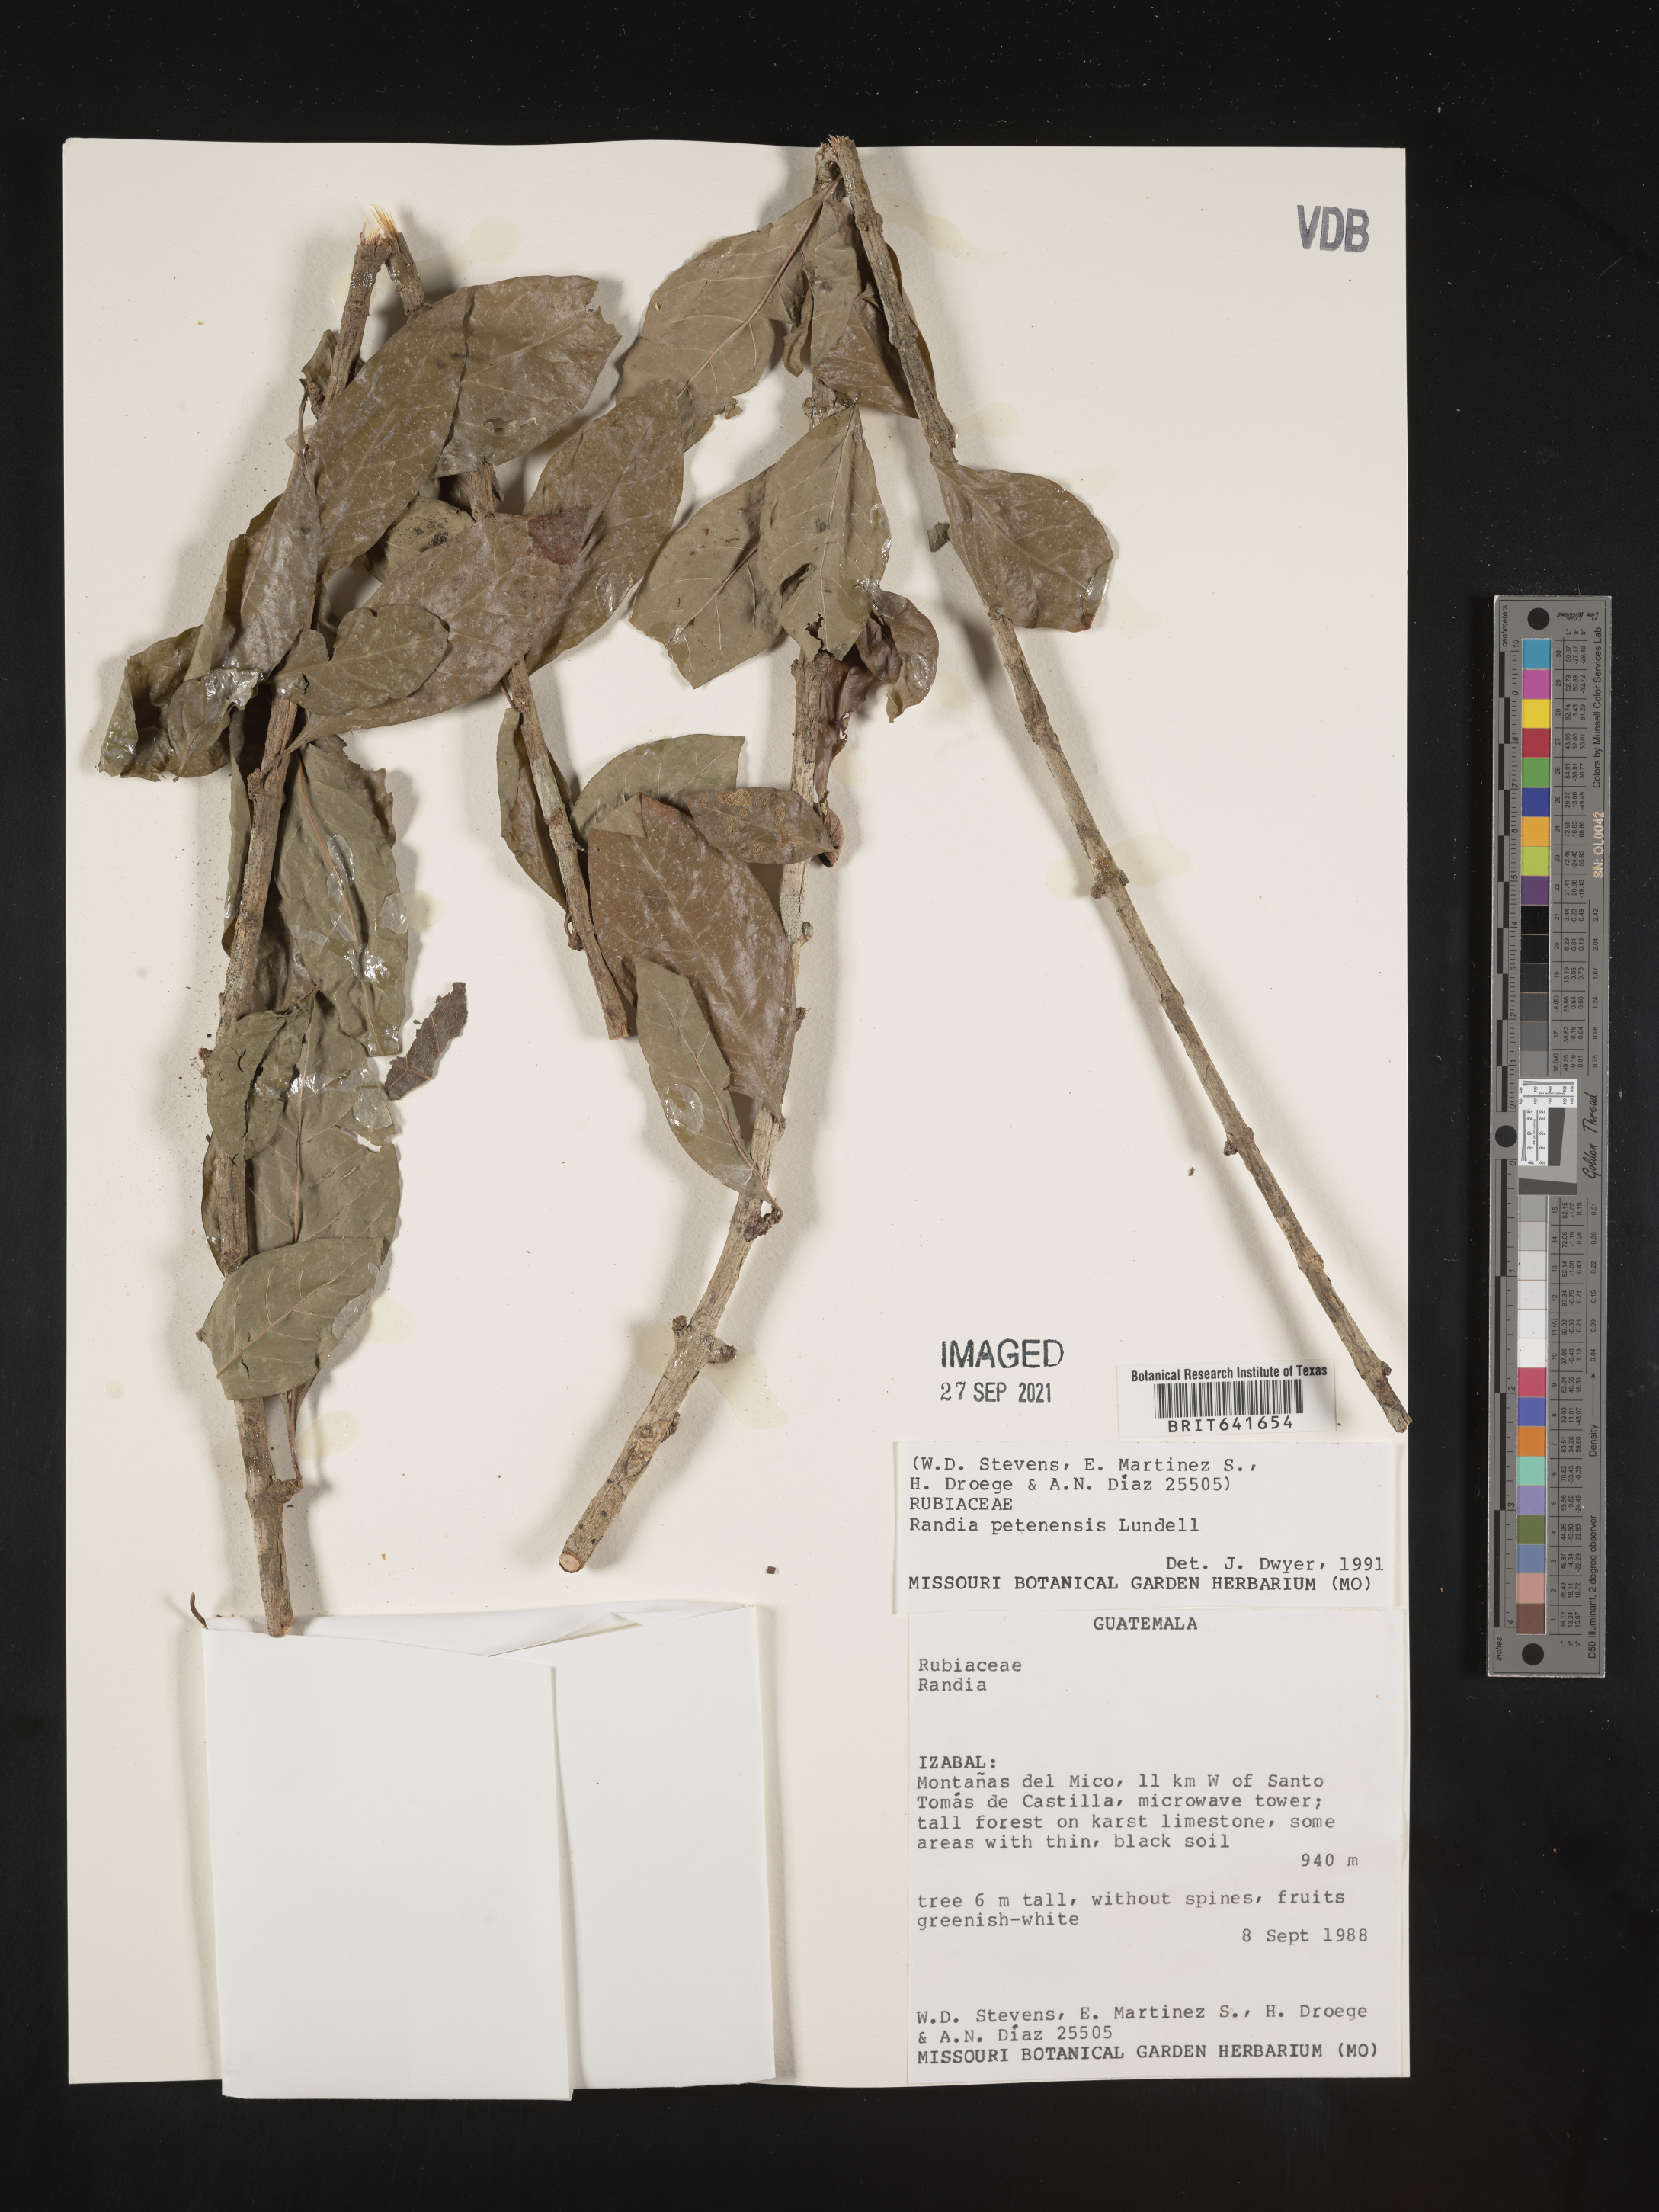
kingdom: Plantae
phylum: Tracheophyta
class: Magnoliopsida
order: Gentianales
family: Rubiaceae
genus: Randia
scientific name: Randia
